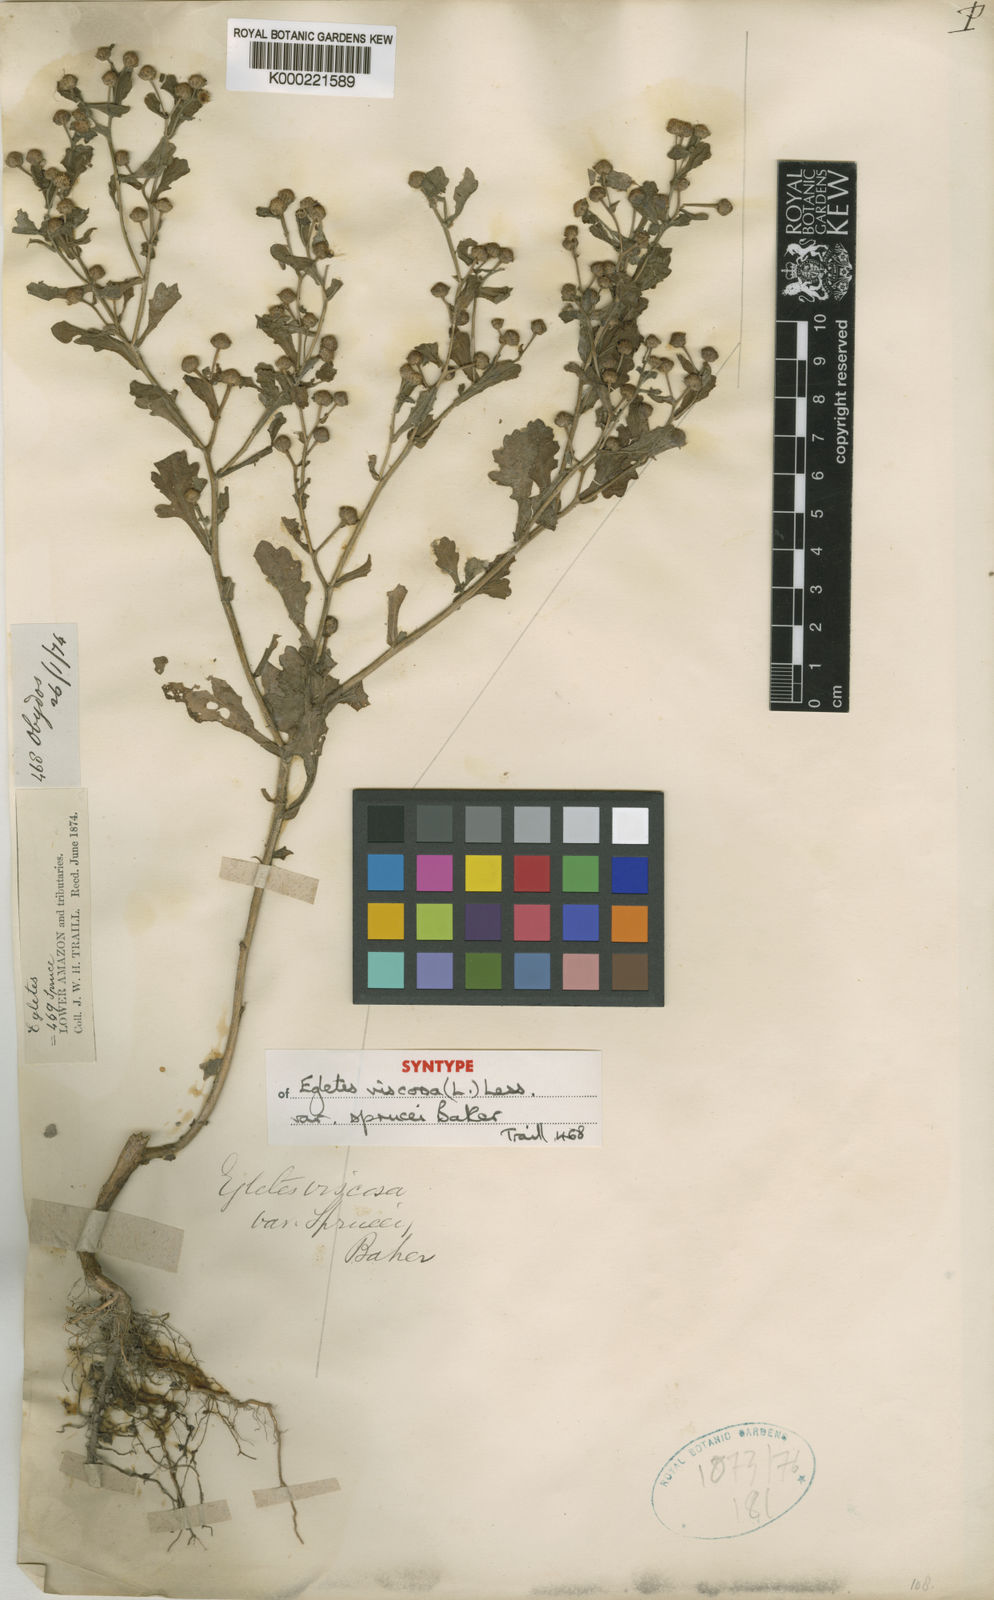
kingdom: Plantae
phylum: Tracheophyta
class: Magnoliopsida
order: Asterales
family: Asteraceae
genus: Egletes
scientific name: Egletes viscosa
